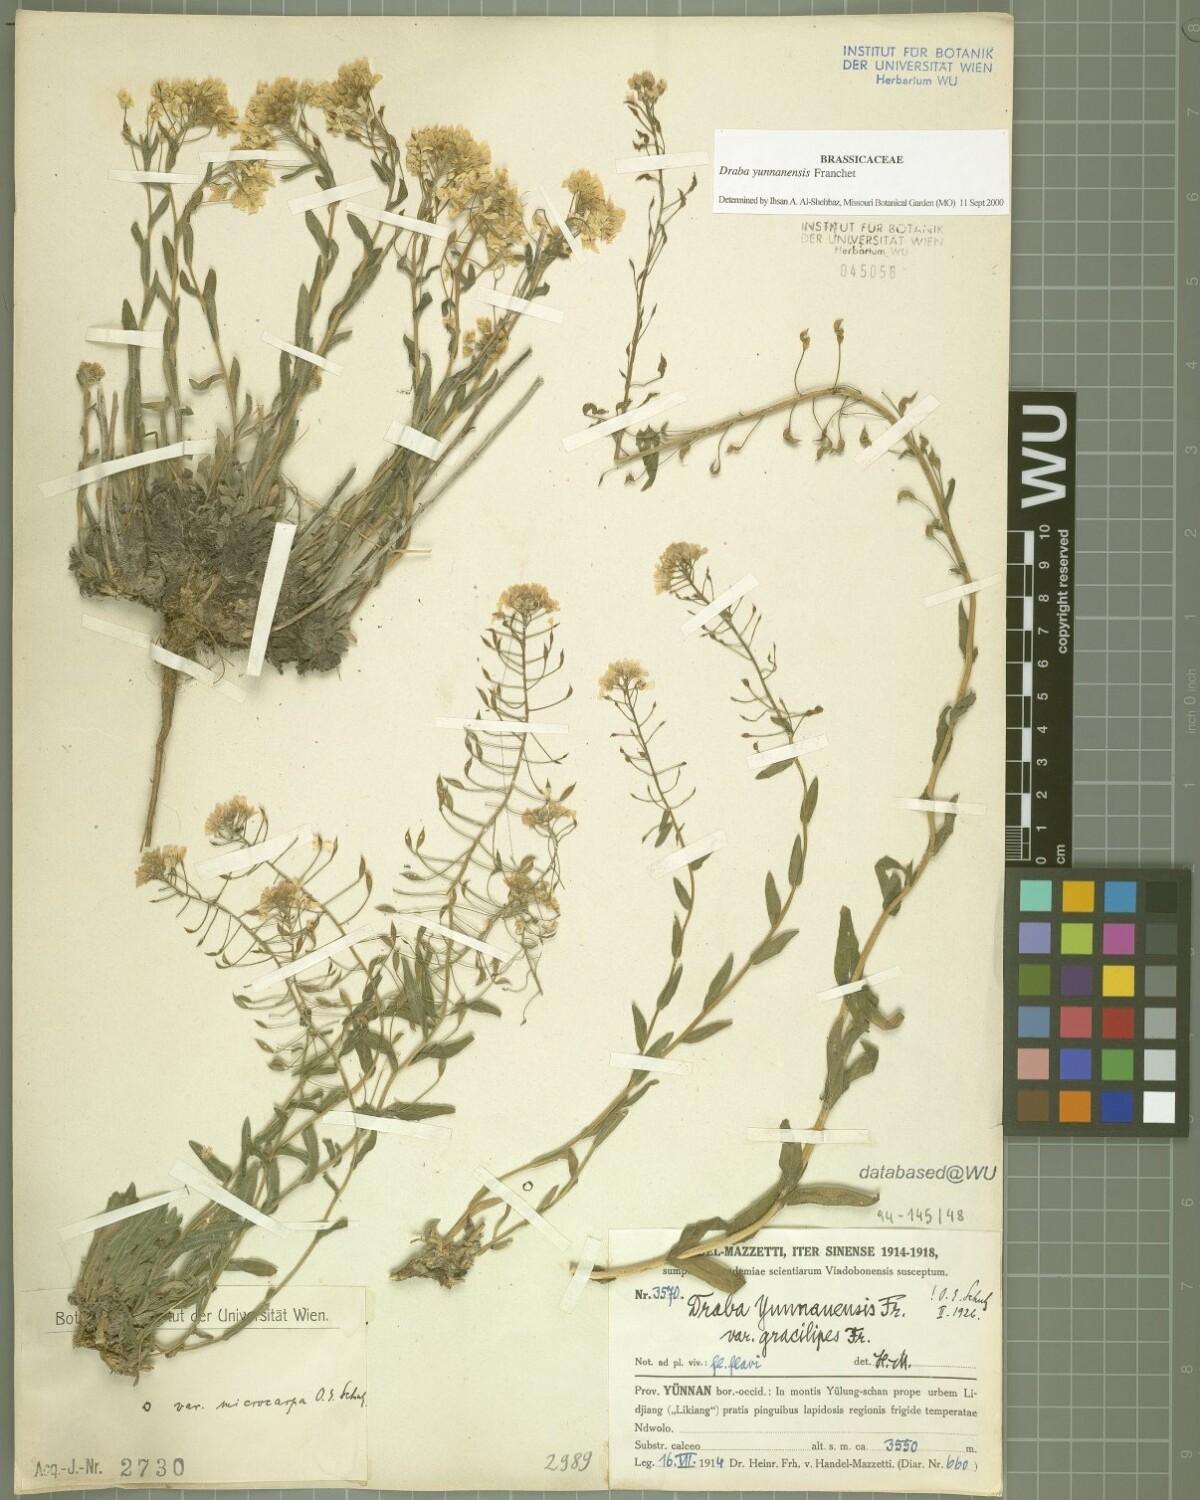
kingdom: Plantae
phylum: Tracheophyta
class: Magnoliopsida
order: Brassicales
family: Brassicaceae
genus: Draba
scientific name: Draba yunnanensis
